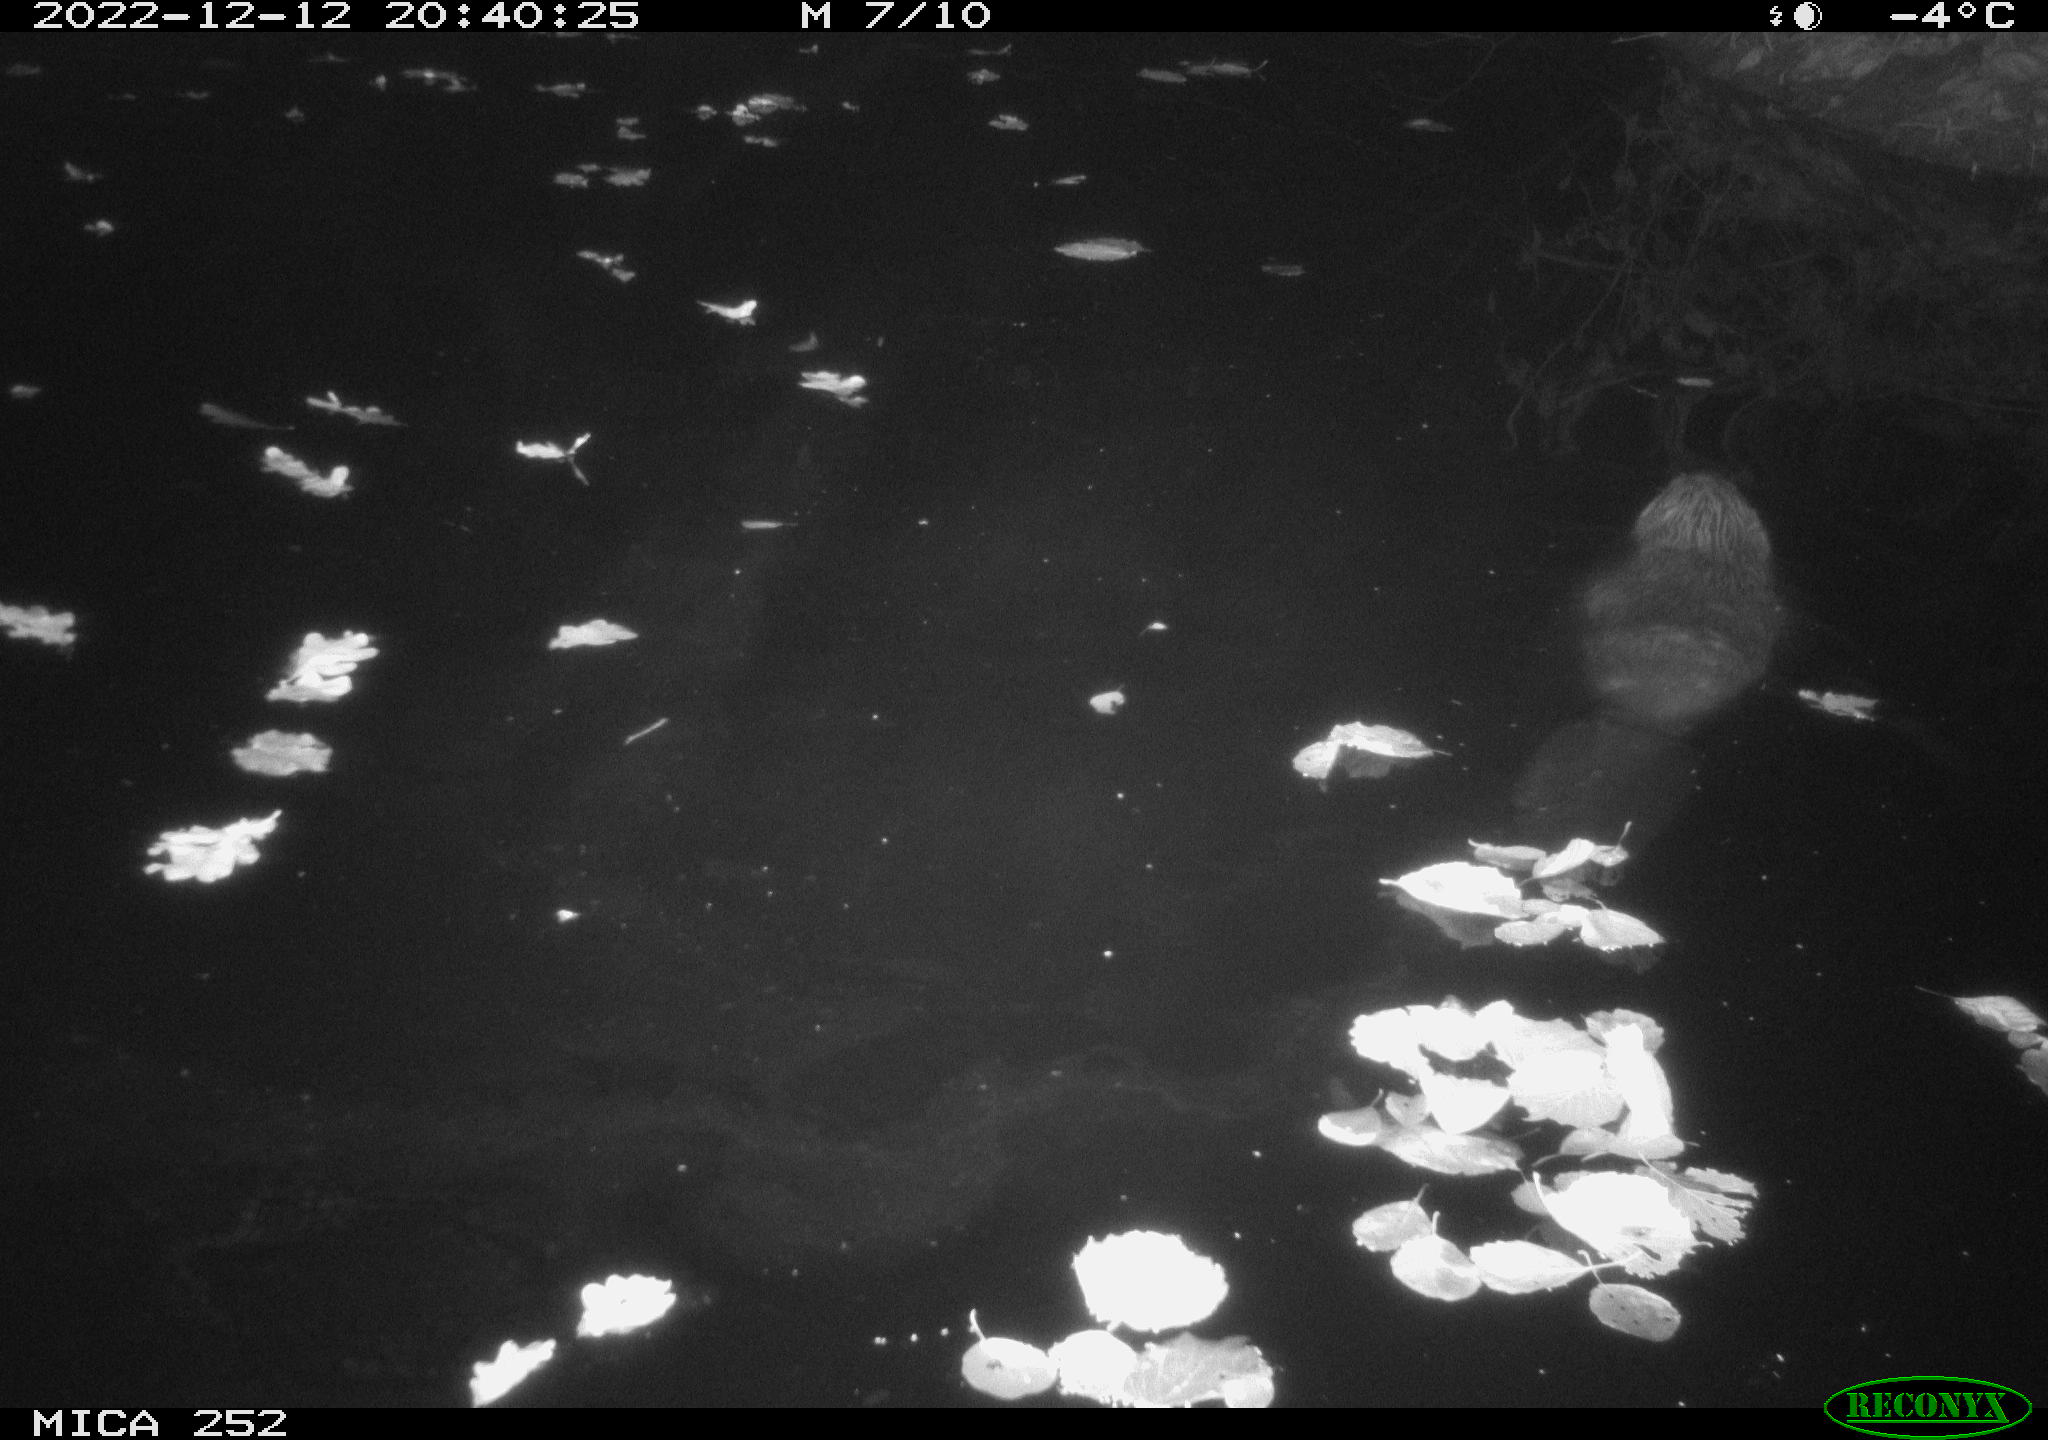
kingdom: Animalia
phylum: Chordata
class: Mammalia
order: Rodentia
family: Castoridae
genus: Castor
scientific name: Castor fiber
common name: Eurasian beaver
